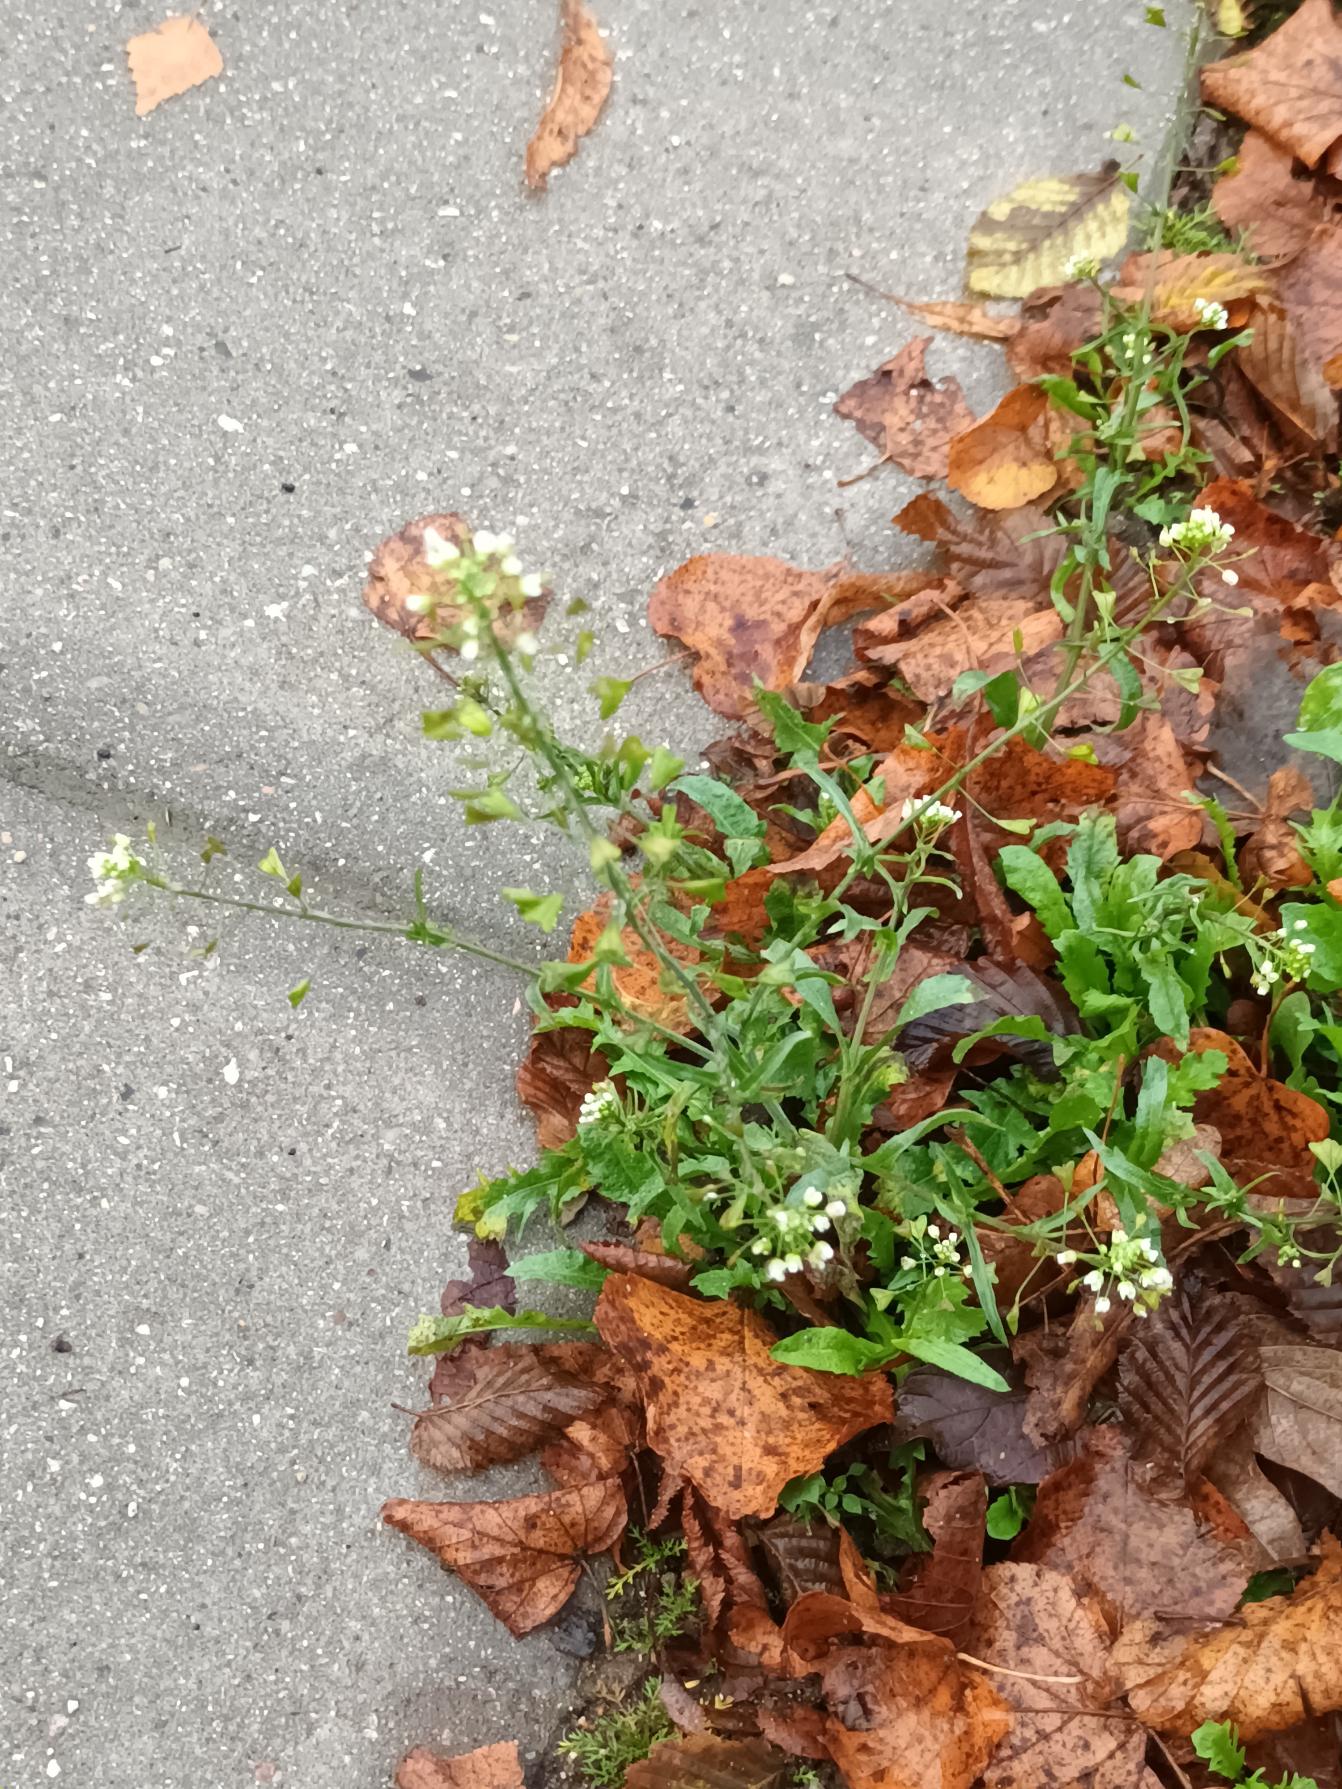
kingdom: Plantae
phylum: Tracheophyta
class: Magnoliopsida
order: Brassicales
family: Brassicaceae
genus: Capsella
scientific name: Capsella bursa-pastoris
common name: Hyrdetaske
